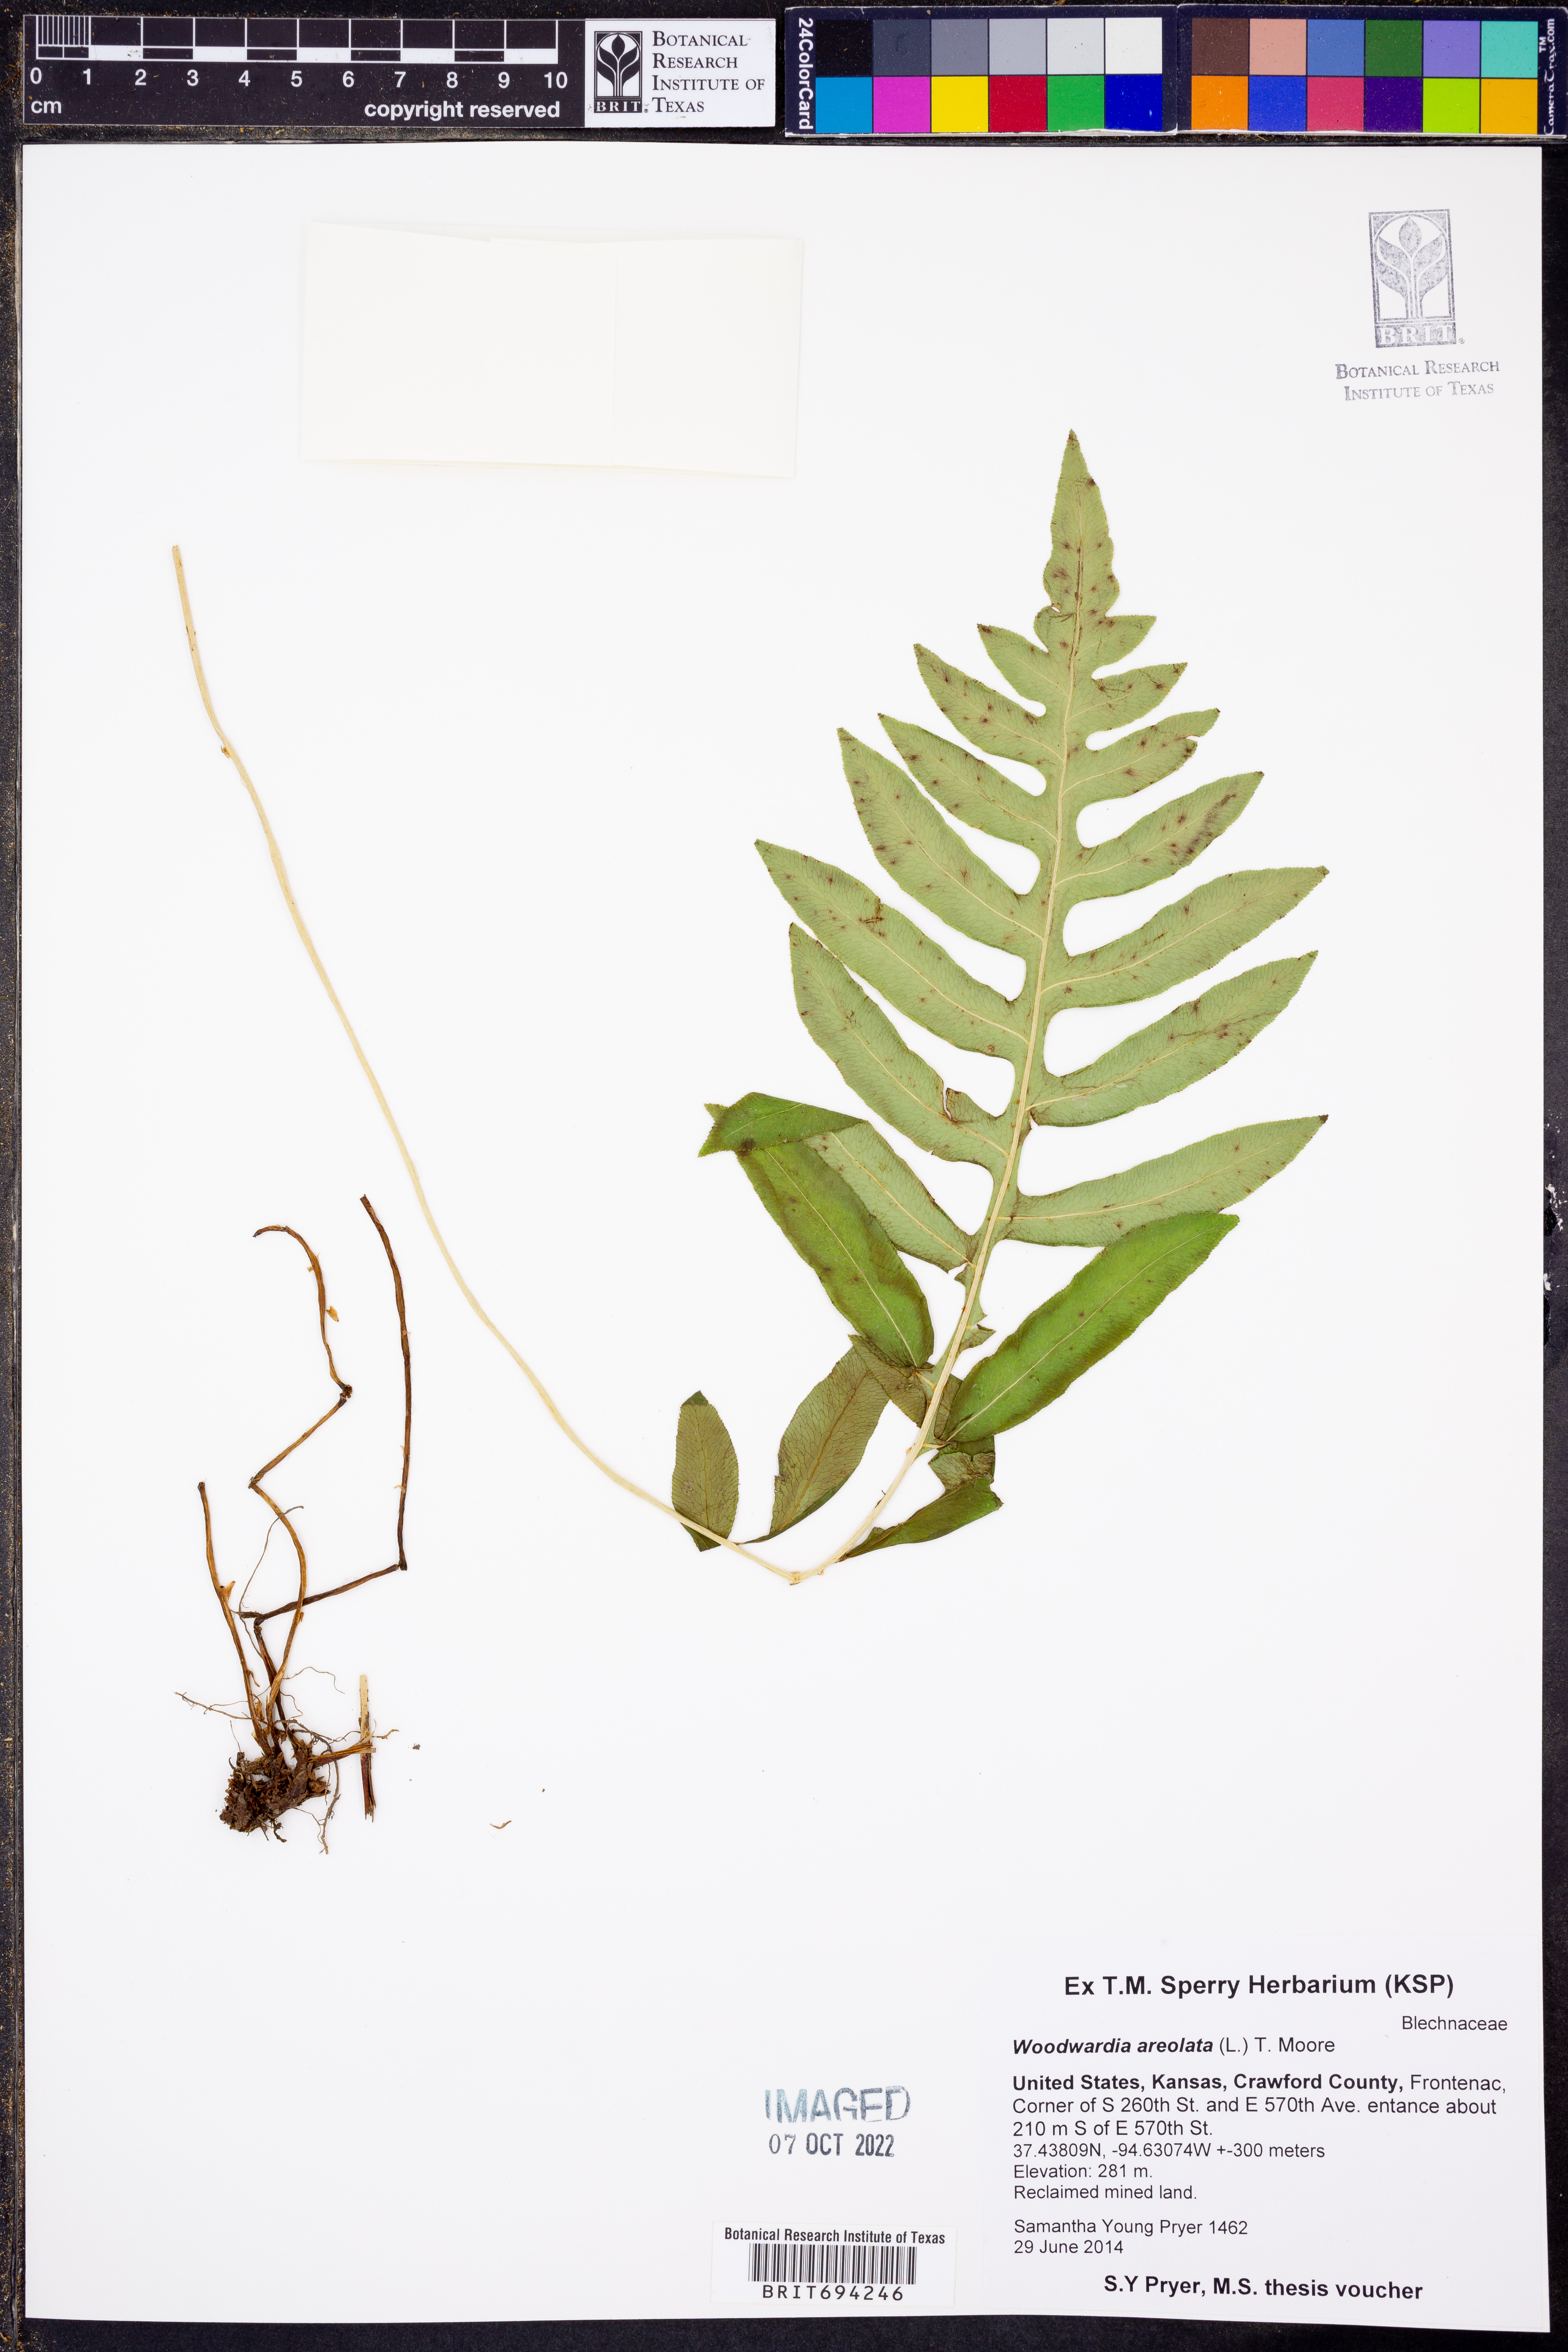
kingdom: Plantae
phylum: Tracheophyta
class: Polypodiopsida
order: Polypodiales
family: Blechnaceae
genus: Lorinseria
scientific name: Lorinseria areolata
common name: Dwarf chain fern
